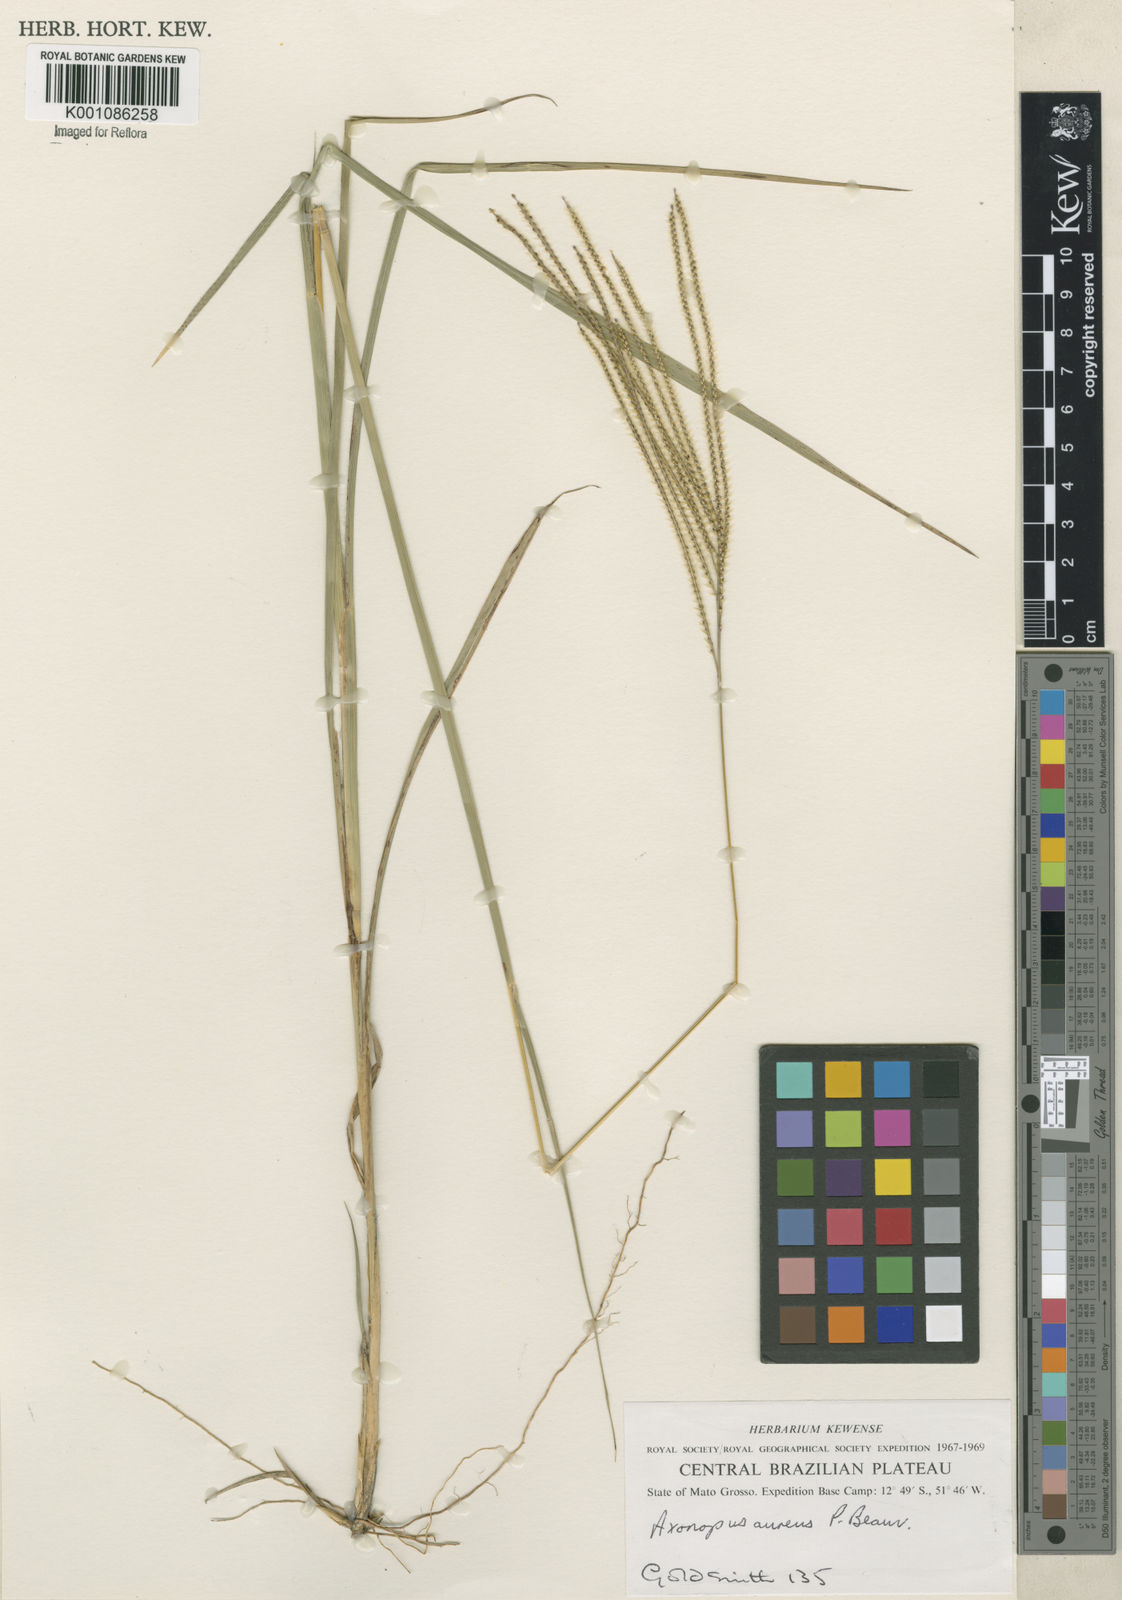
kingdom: Plantae
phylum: Tracheophyta
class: Liliopsida
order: Poales
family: Poaceae
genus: Axonopus
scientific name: Axonopus aureus
